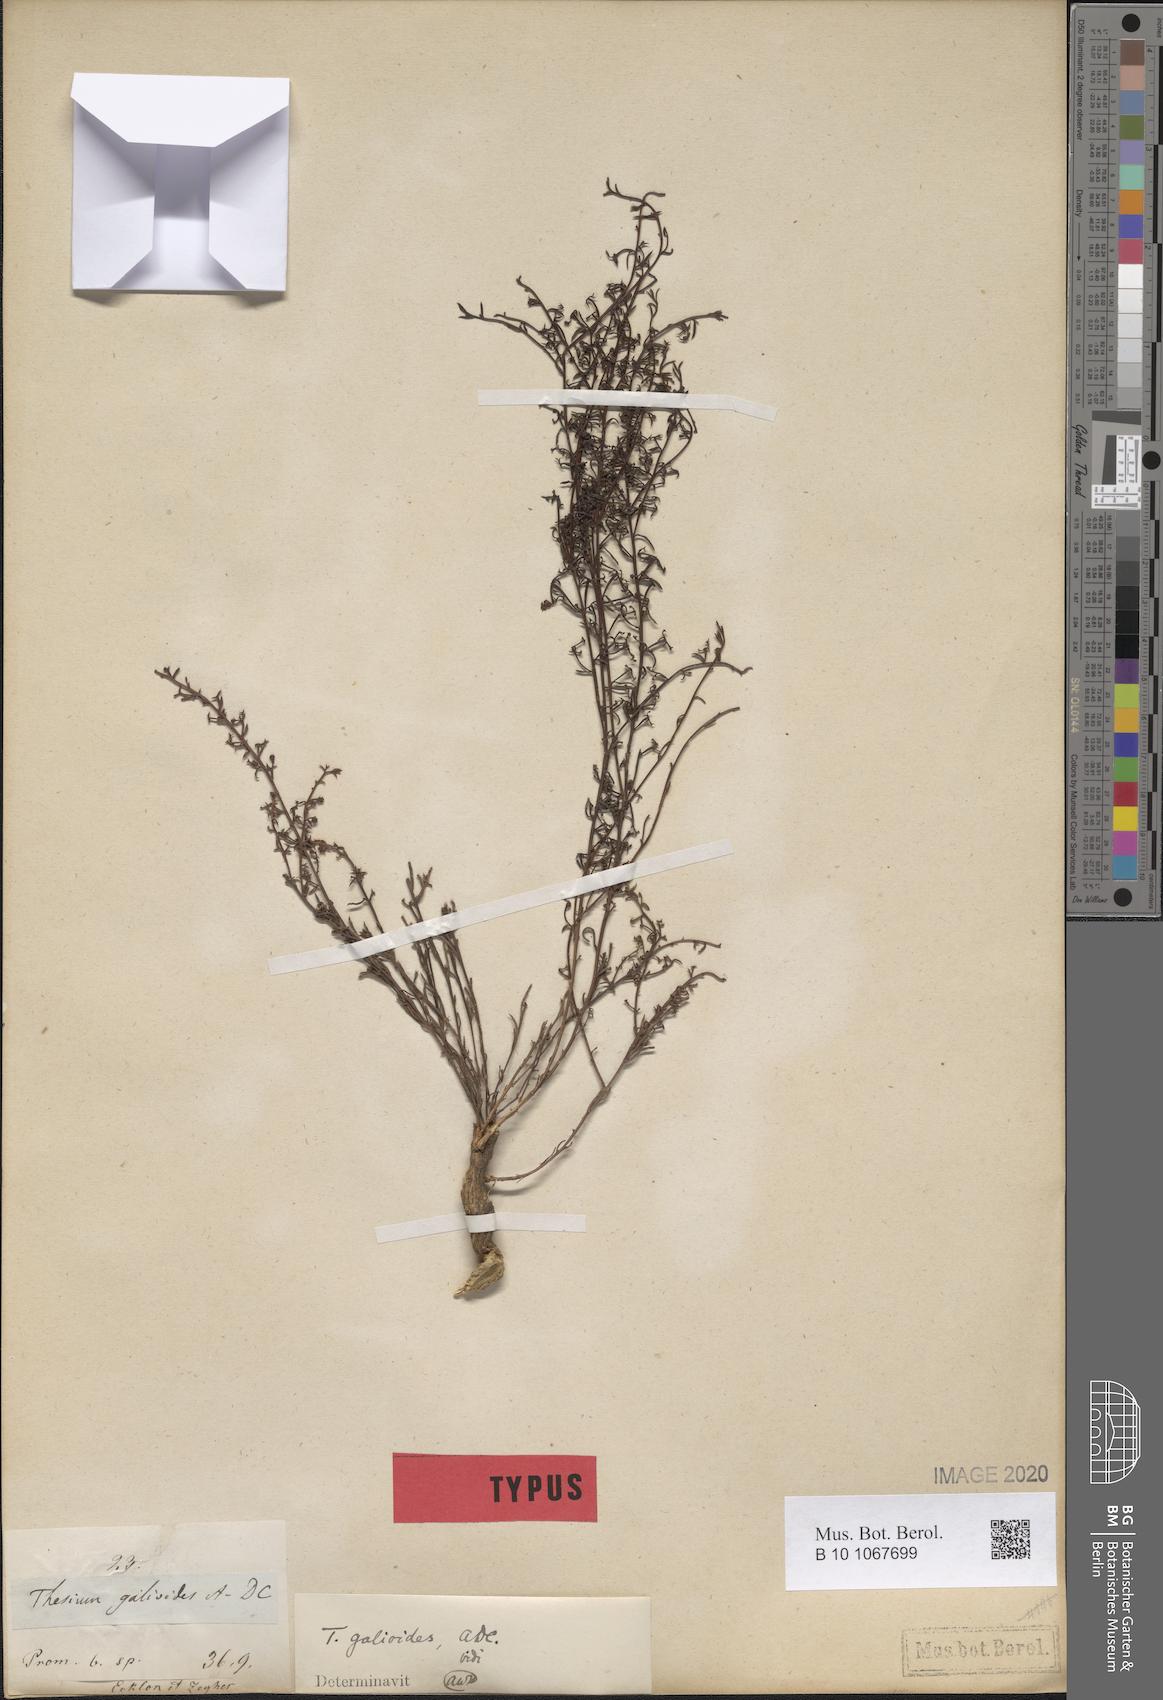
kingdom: Plantae
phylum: Tracheophyta
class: Magnoliopsida
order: Santalales
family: Thesiaceae
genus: Thesium
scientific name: Thesium galioides
